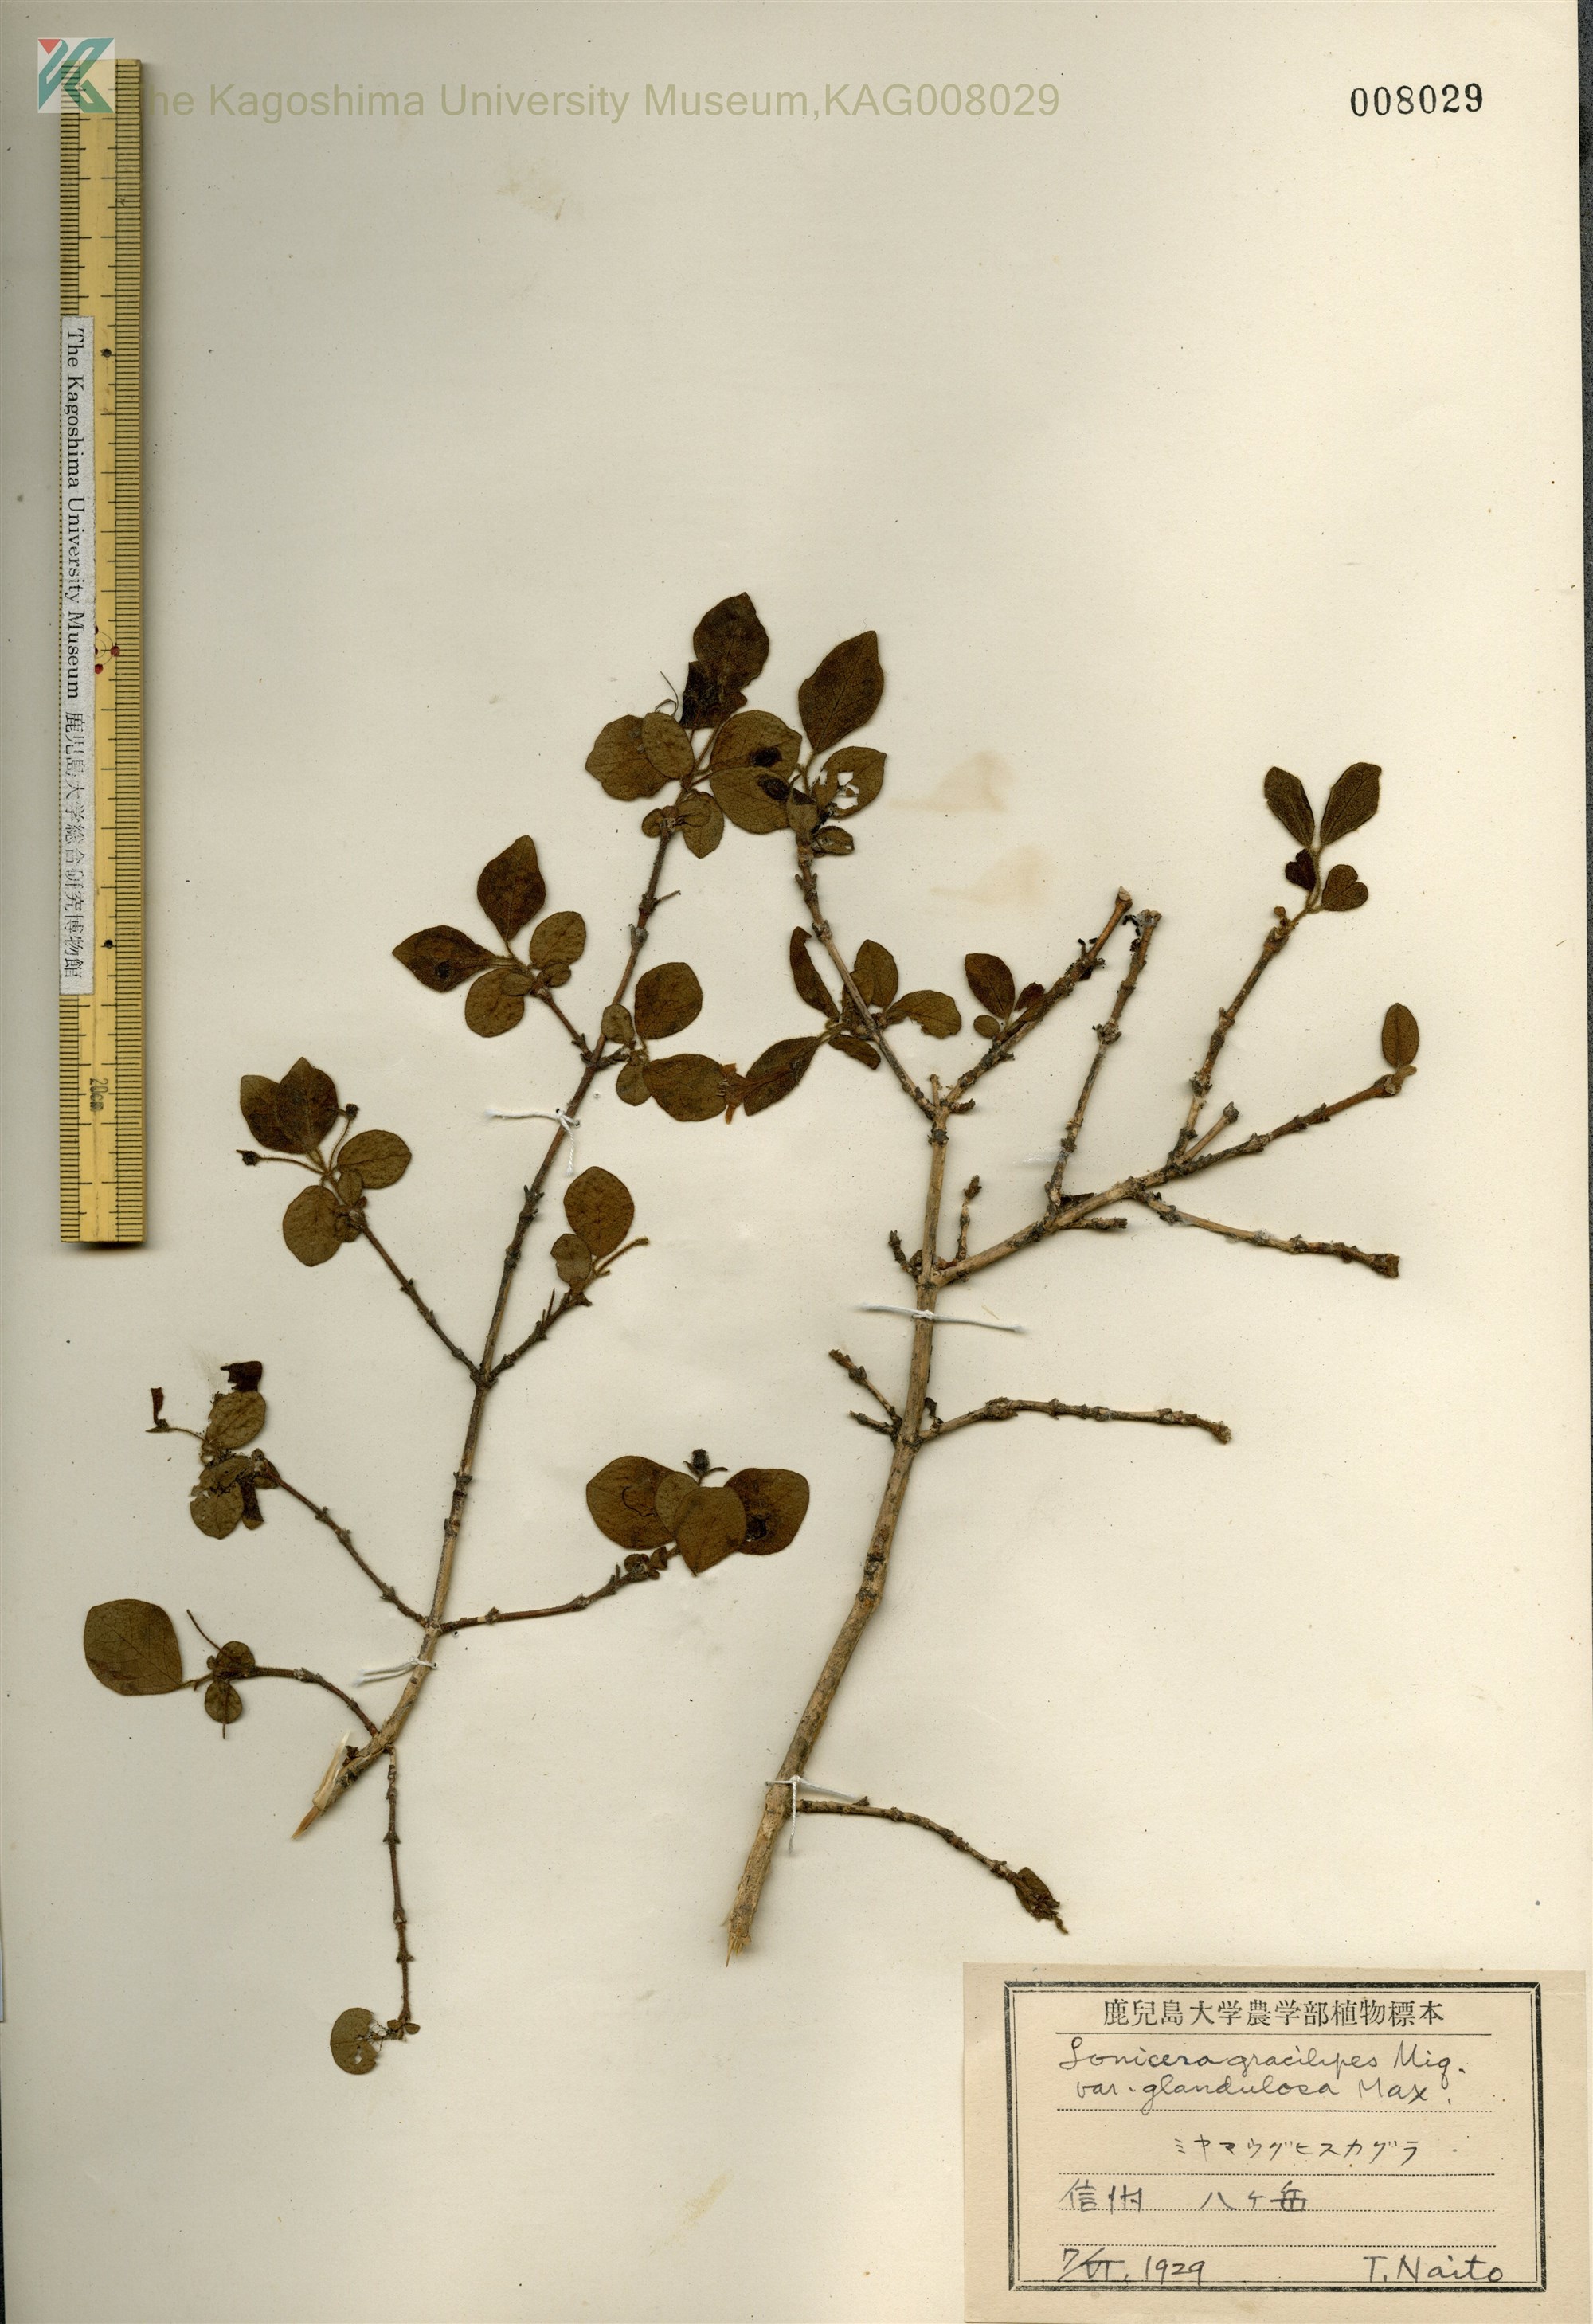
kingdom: Plantae
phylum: Tracheophyta
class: Magnoliopsida
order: Dipsacales
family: Caprifoliaceae
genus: Lonicera
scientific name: Lonicera gracilipes
